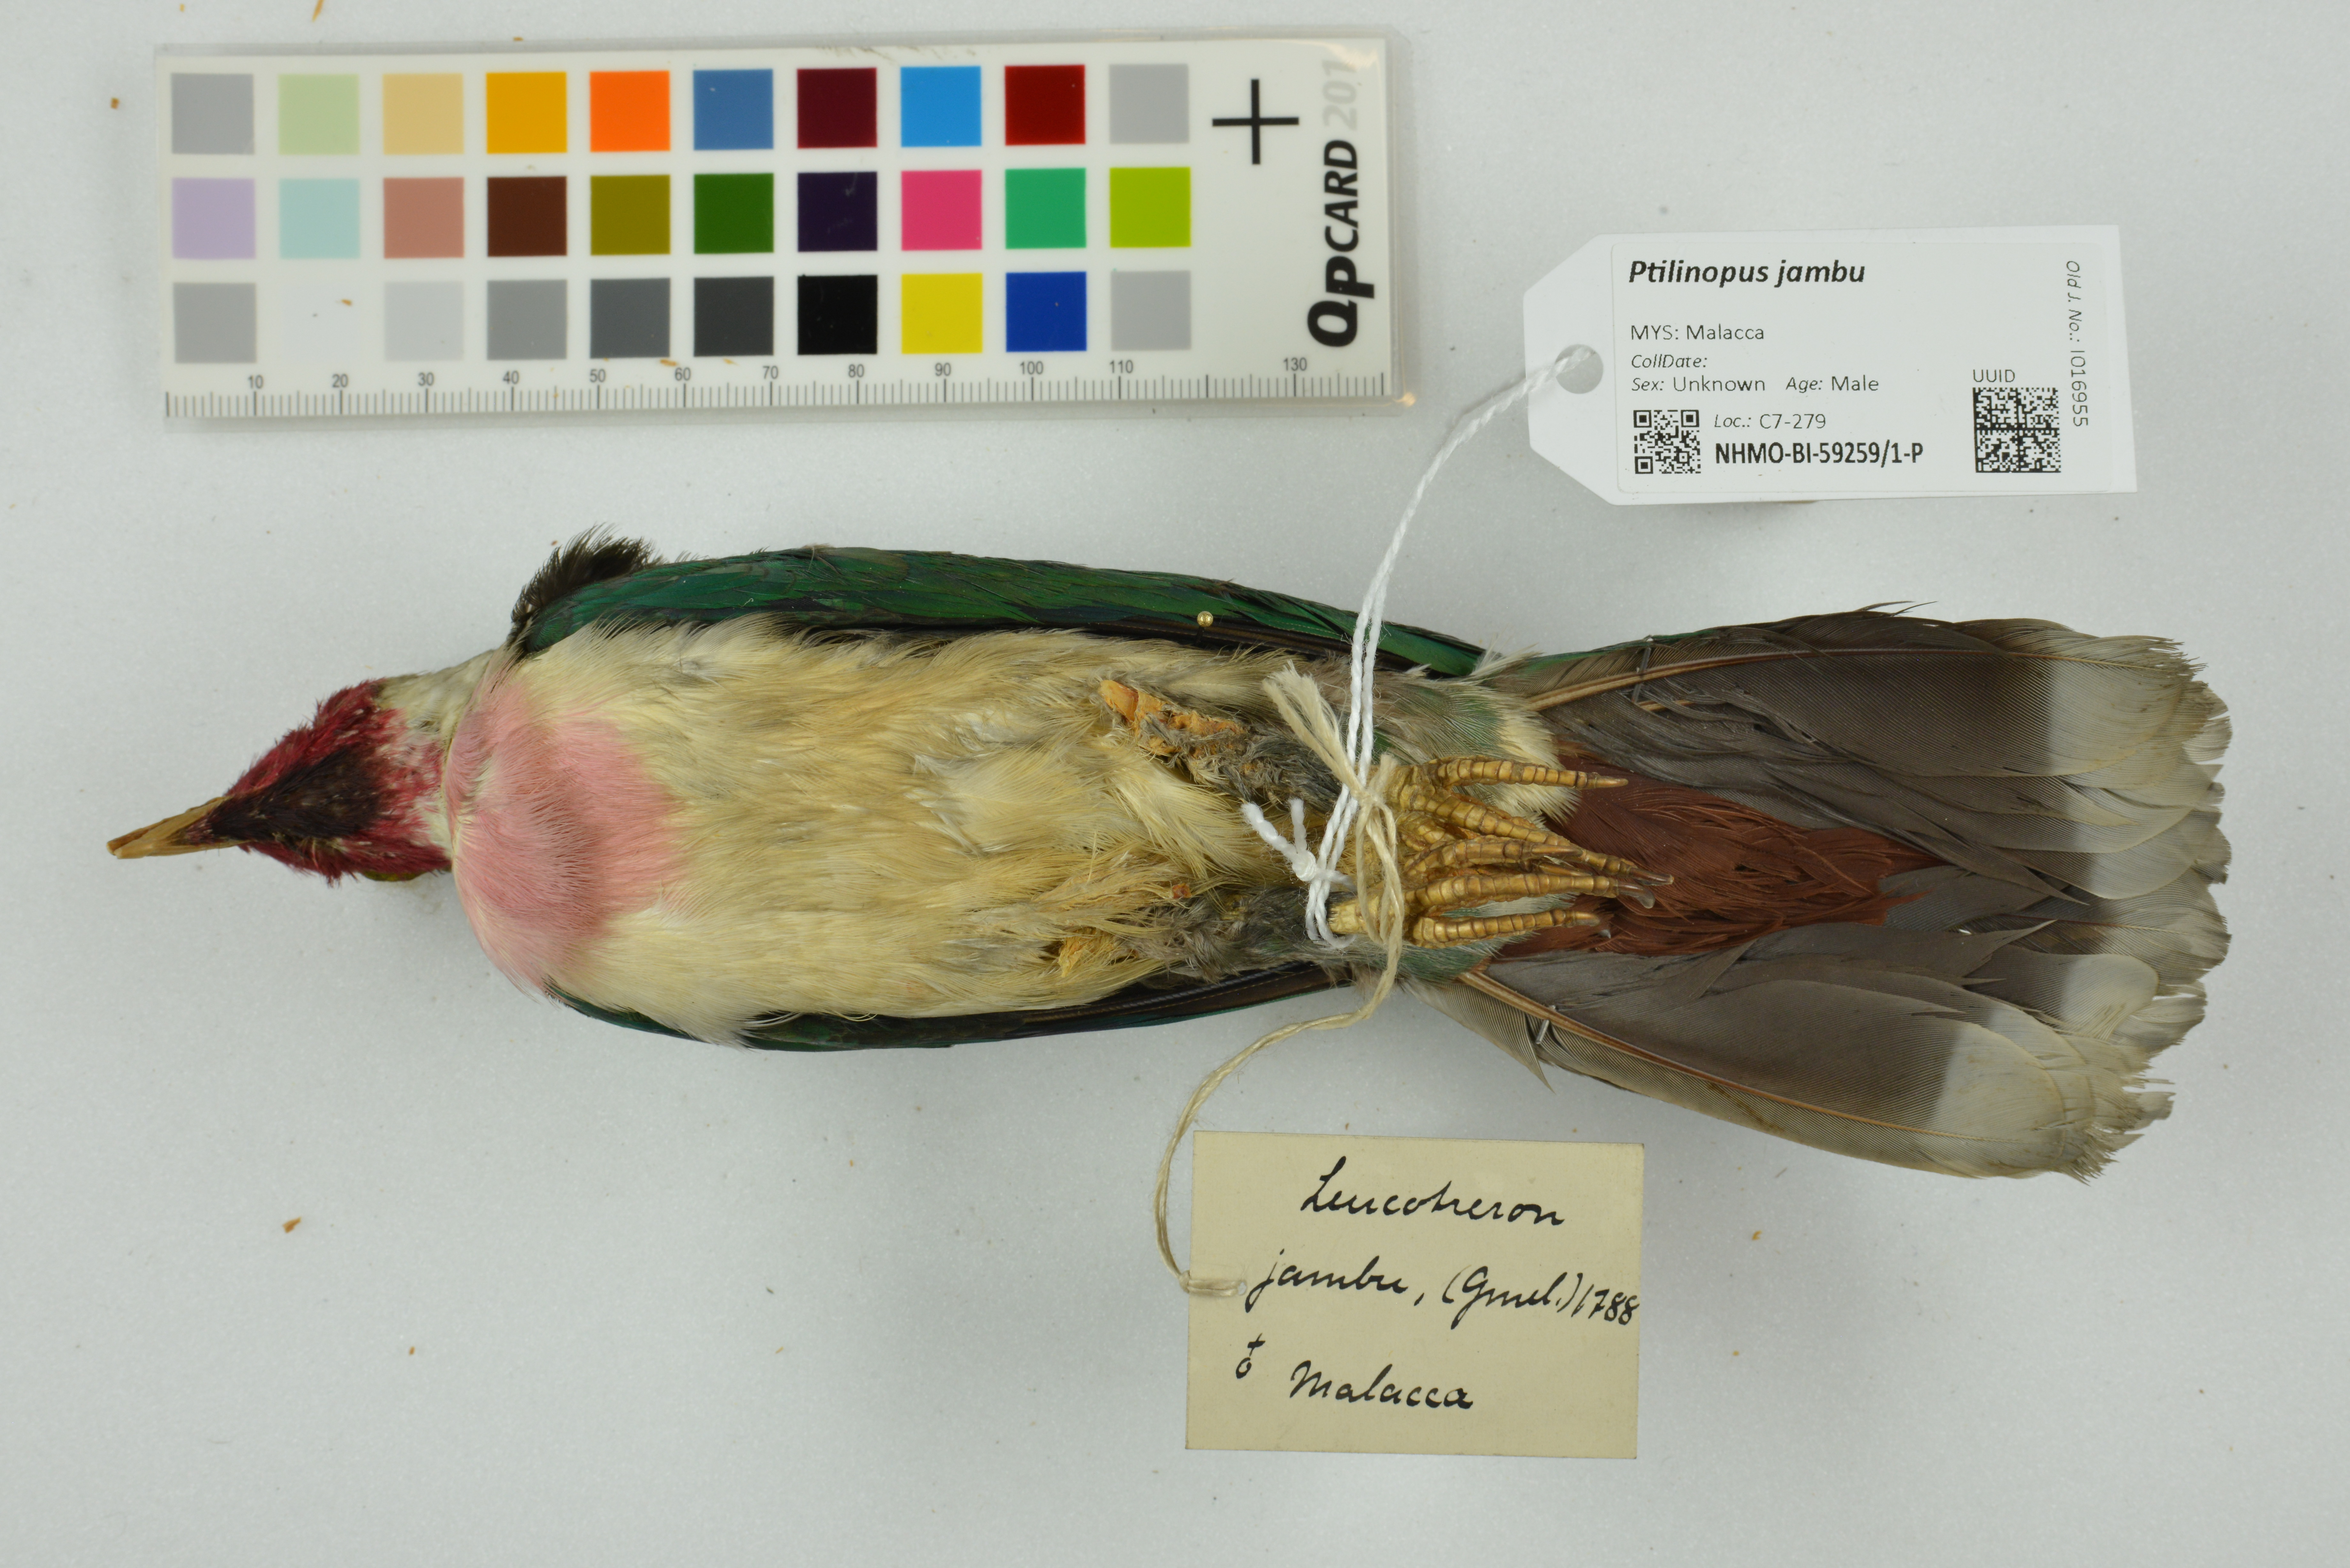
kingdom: Animalia
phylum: Chordata
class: Aves
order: Columbiformes
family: Columbidae
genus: Ptilinopus
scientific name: Ptilinopus jambu
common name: Jambu fruit dove
